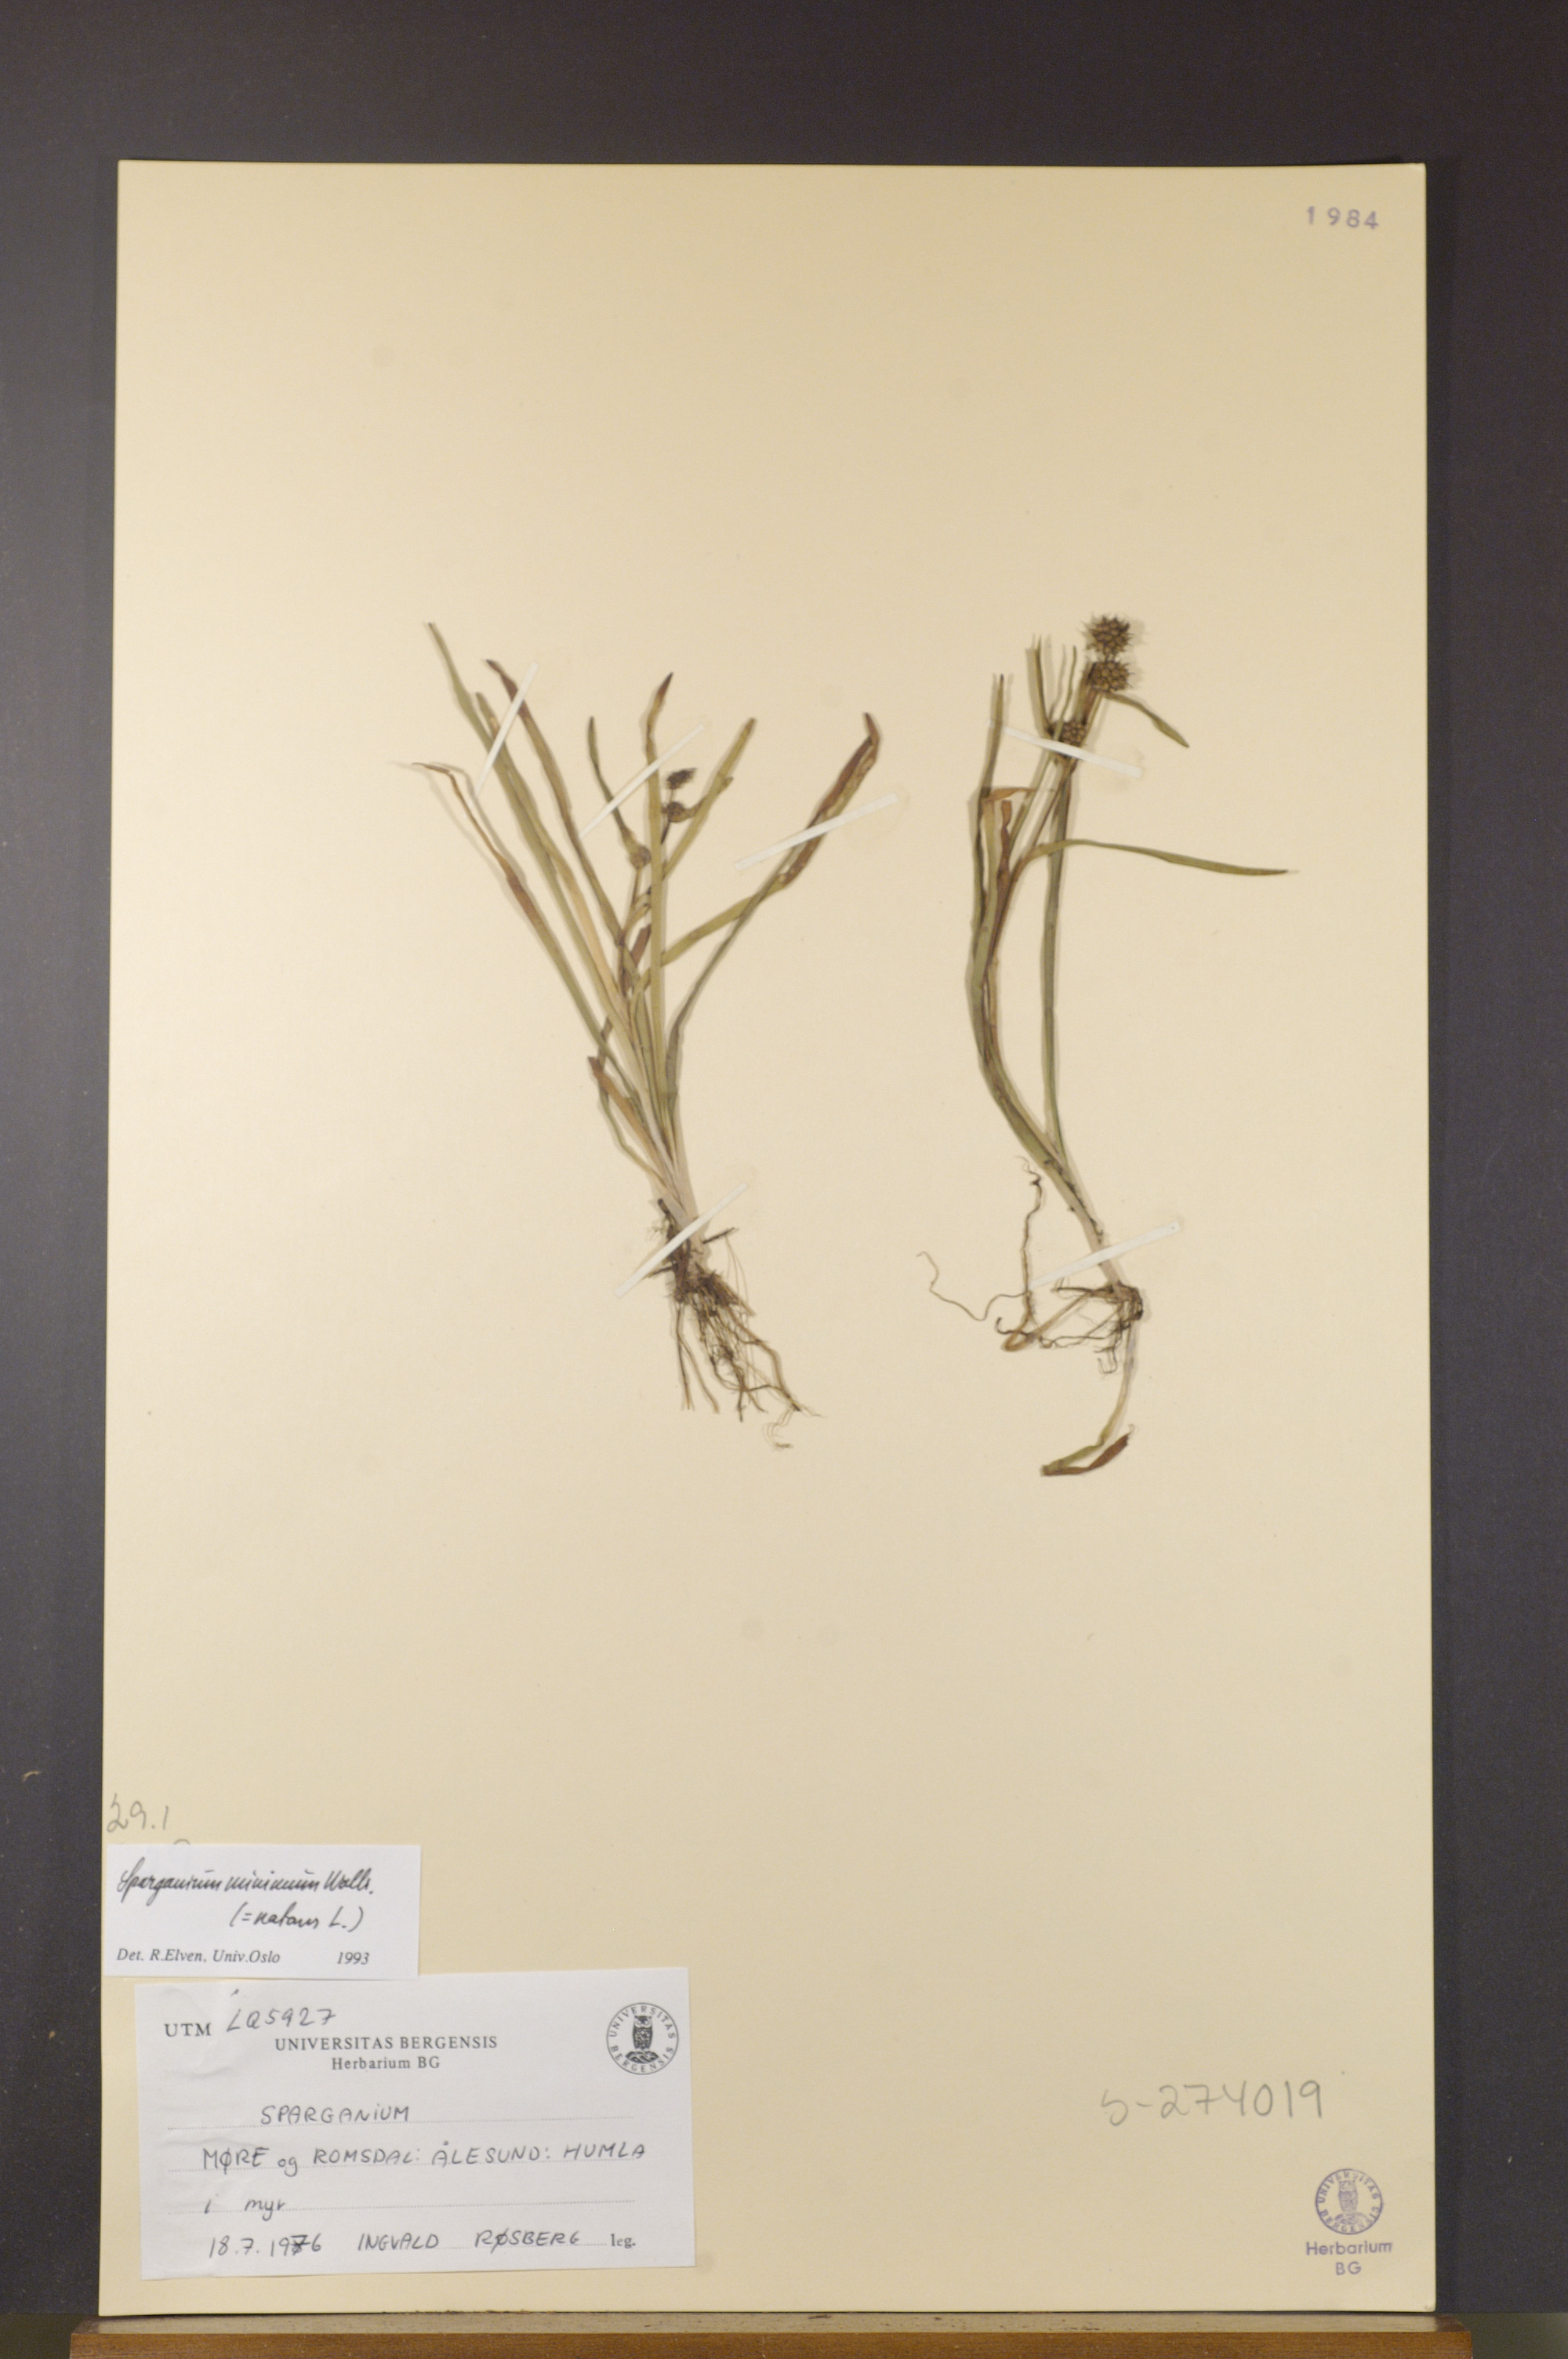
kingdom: Plantae
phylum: Tracheophyta
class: Liliopsida
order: Poales
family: Typhaceae
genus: Sparganium
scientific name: Sparganium natans
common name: Least bur-reed
